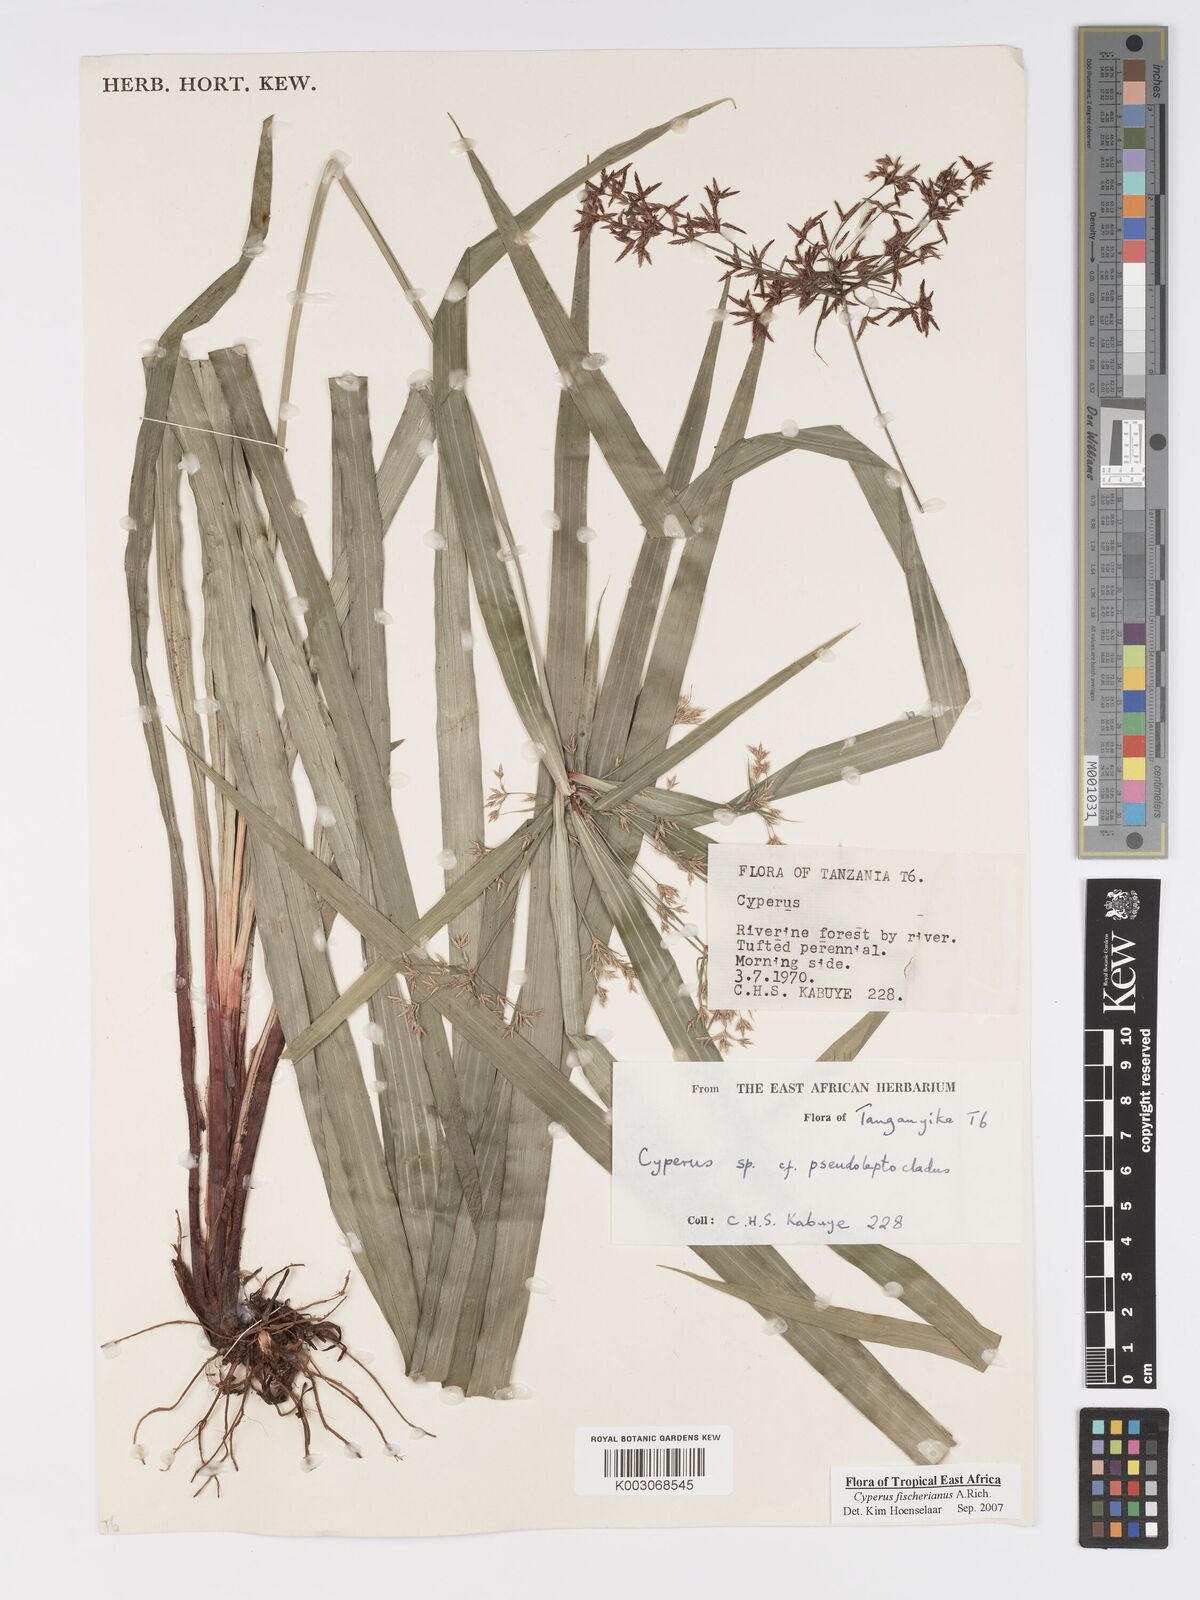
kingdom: Plantae
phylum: Tracheophyta
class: Liliopsida
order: Poales
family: Cyperaceae
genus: Cyperus
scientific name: Cyperus fischerianus
